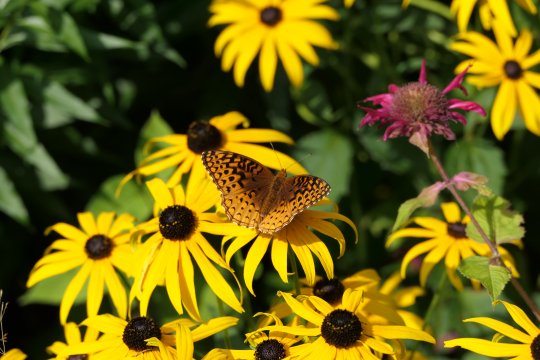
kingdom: Animalia
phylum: Arthropoda
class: Insecta
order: Lepidoptera
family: Nymphalidae
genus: Speyeria
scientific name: Speyeria aphrodite
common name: Aphrodite Fritillary
